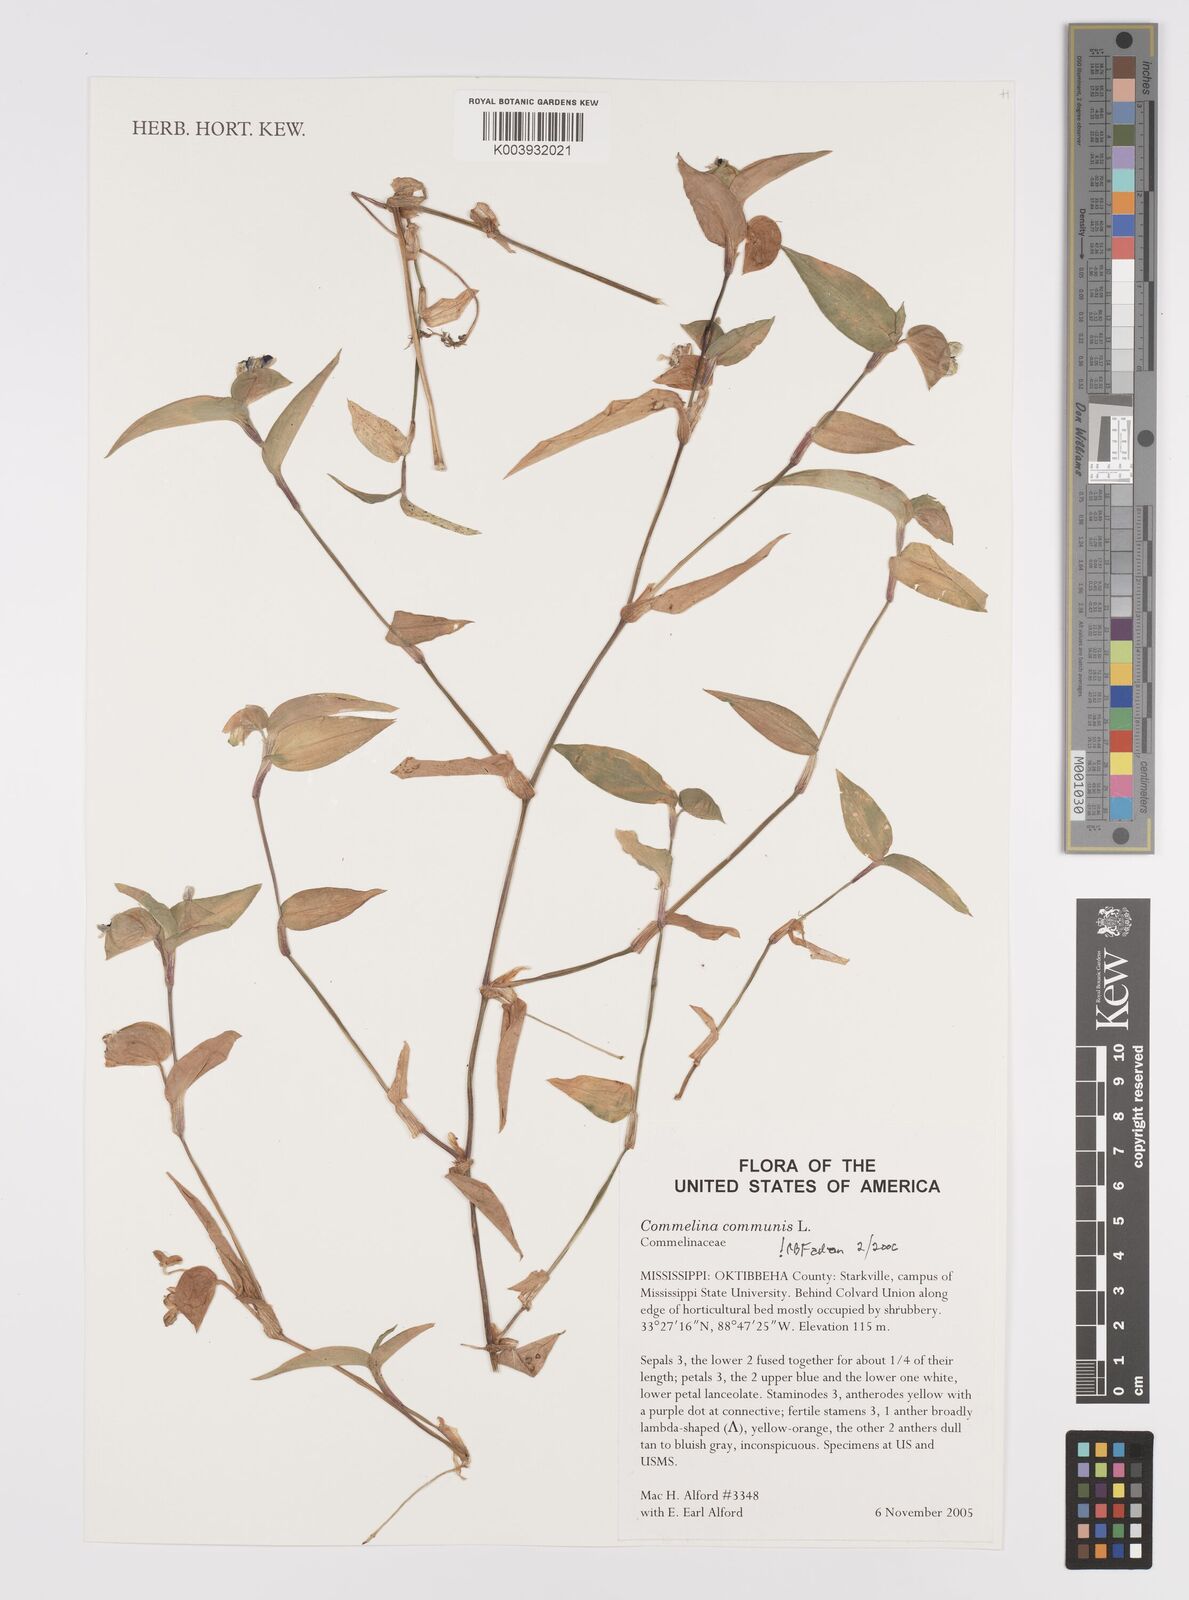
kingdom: Plantae
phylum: Tracheophyta
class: Liliopsida
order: Commelinales
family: Commelinaceae
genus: Commelina
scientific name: Commelina communis
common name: Asiatic dayflower
